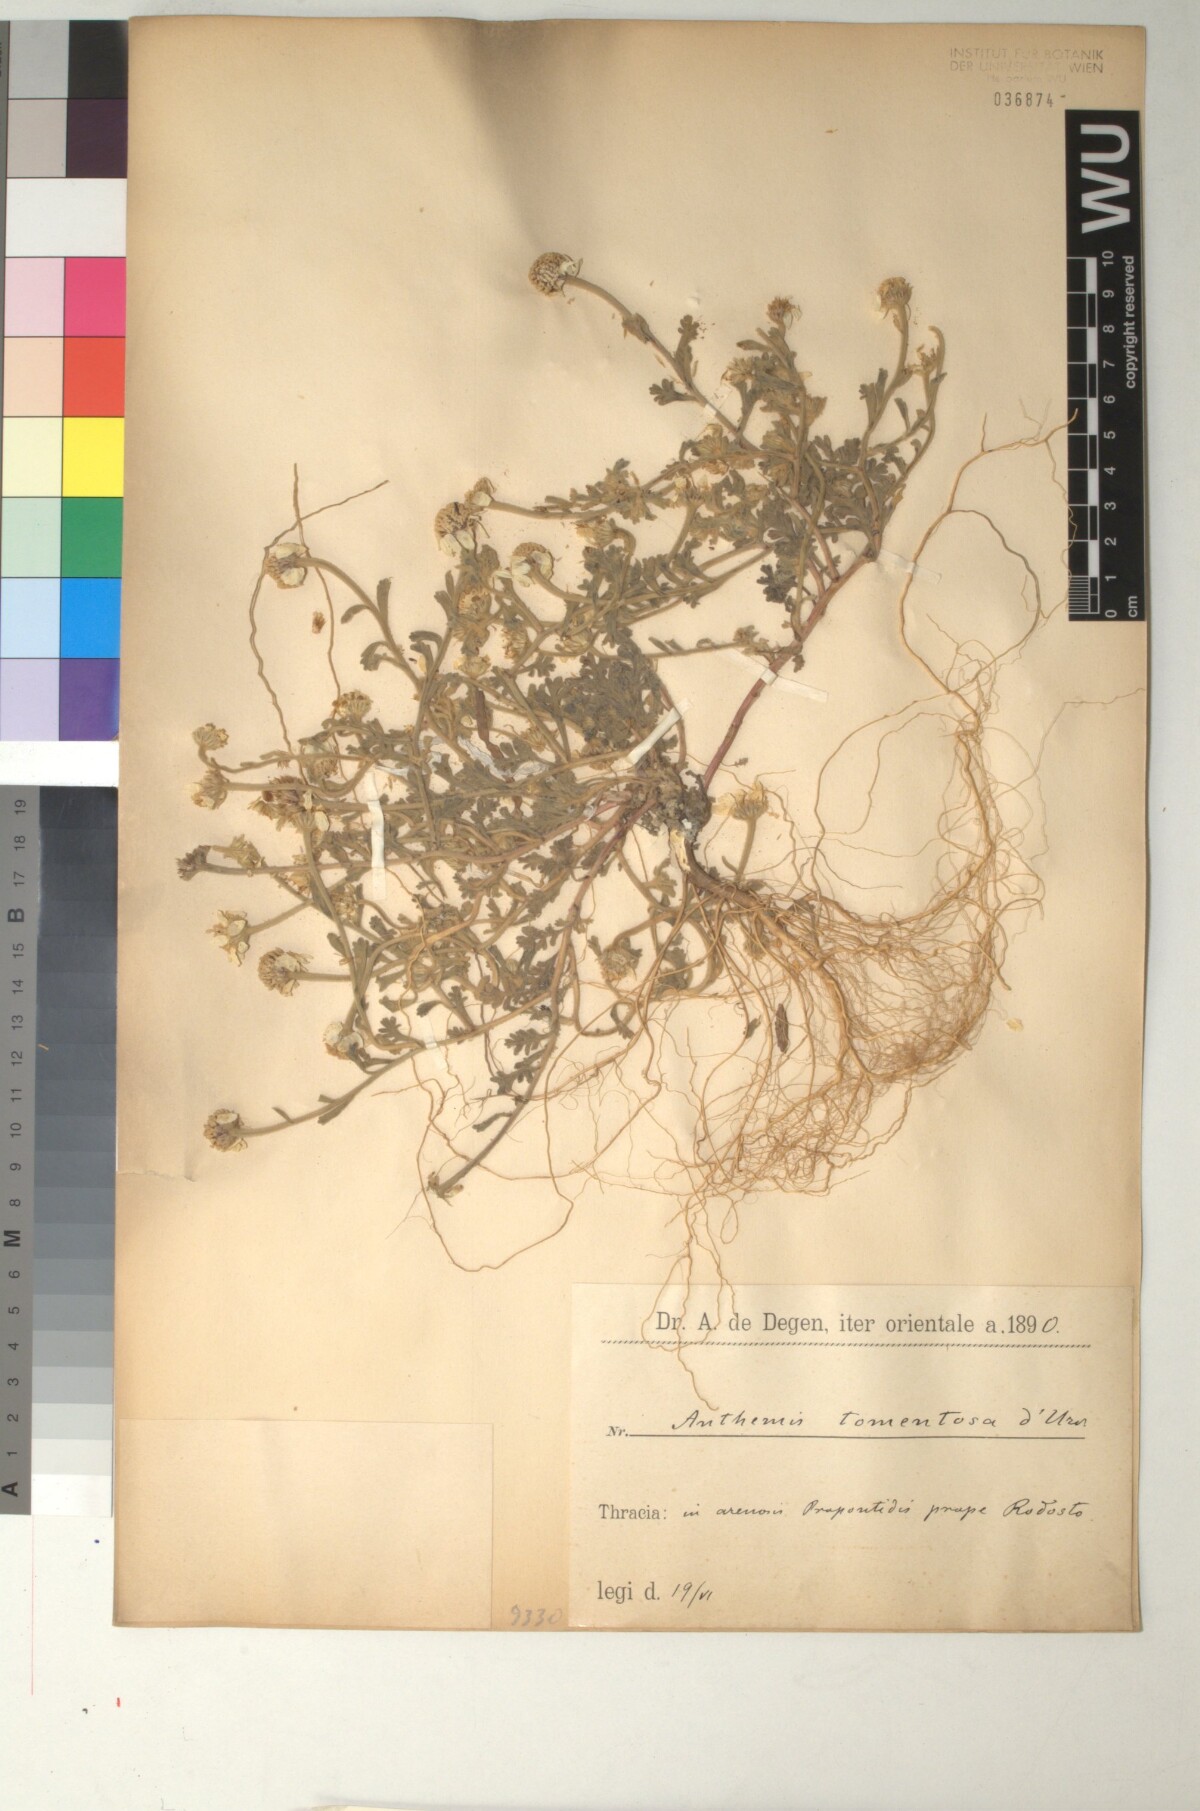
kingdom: Plantae
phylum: Tracheophyta
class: Magnoliopsida
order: Asterales
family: Asteraceae
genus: Anthemis
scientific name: Anthemis tomentosa
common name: Woolly chamomile
